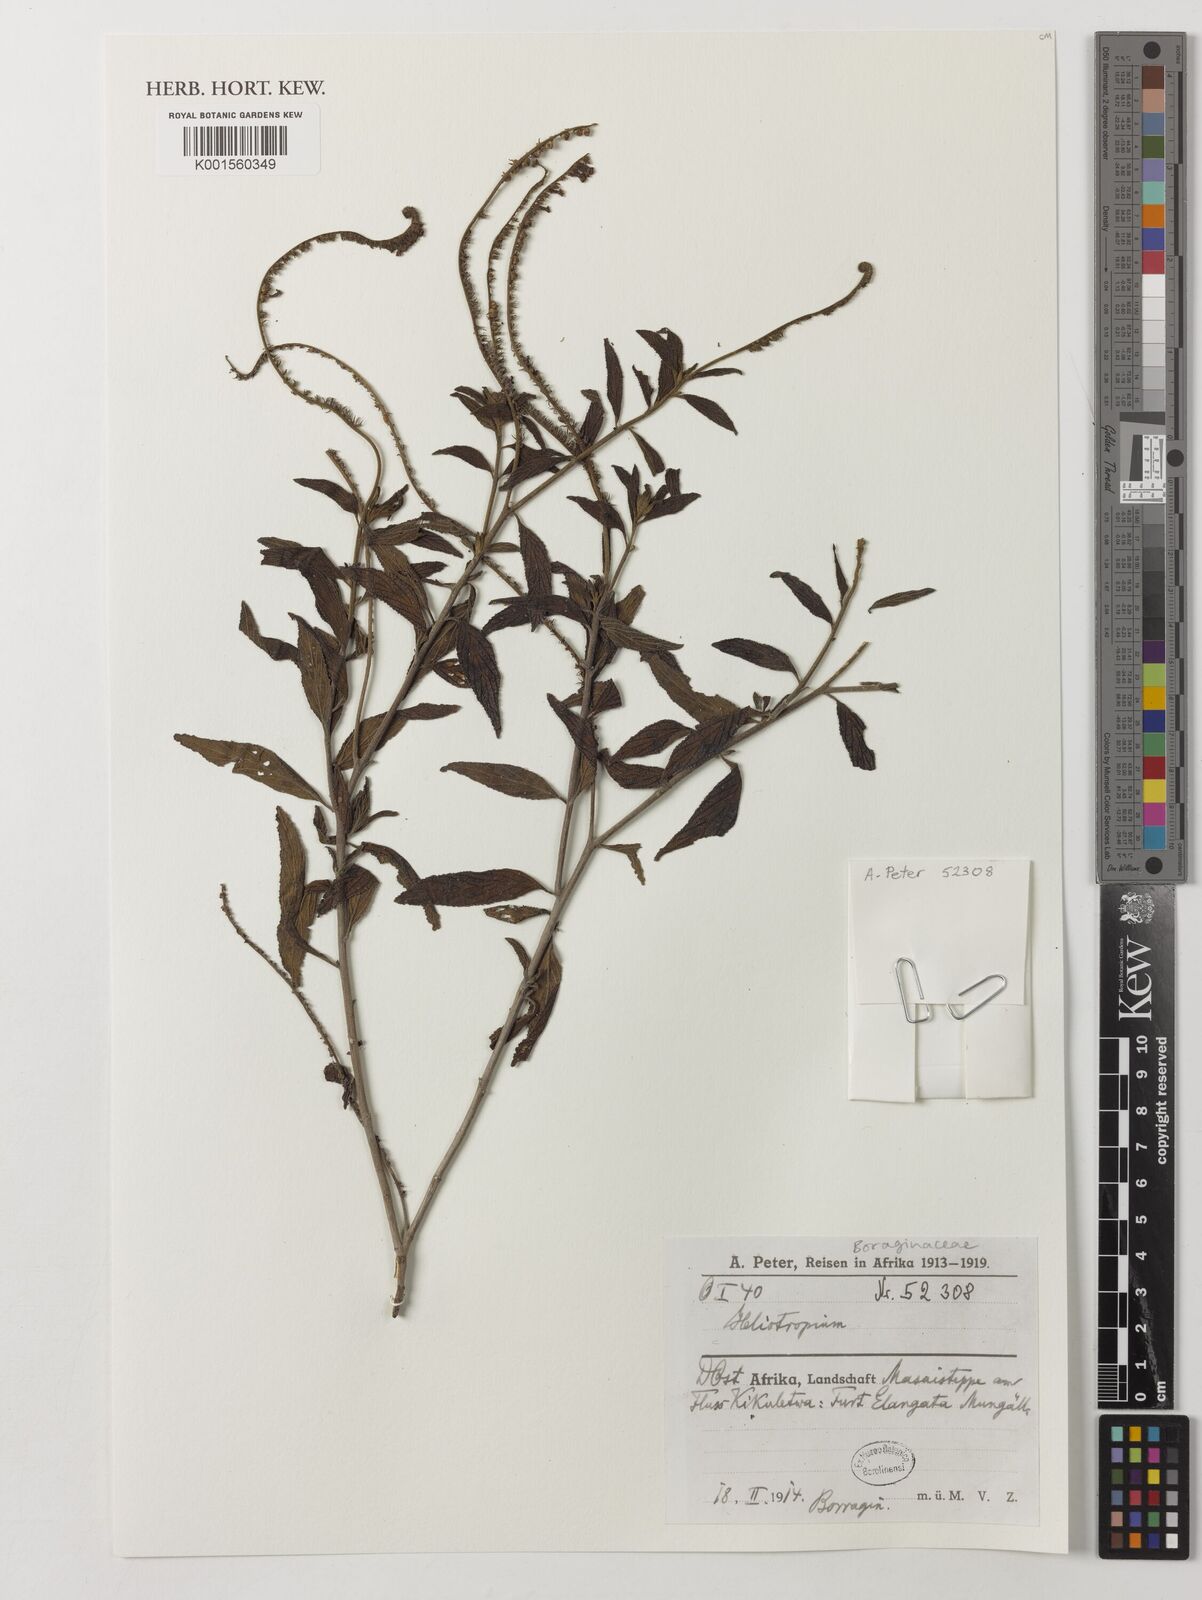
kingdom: Plantae
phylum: Tracheophyta
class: Magnoliopsida
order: Boraginales
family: Heliotropiaceae
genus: Heliotropium
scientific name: Heliotropium
